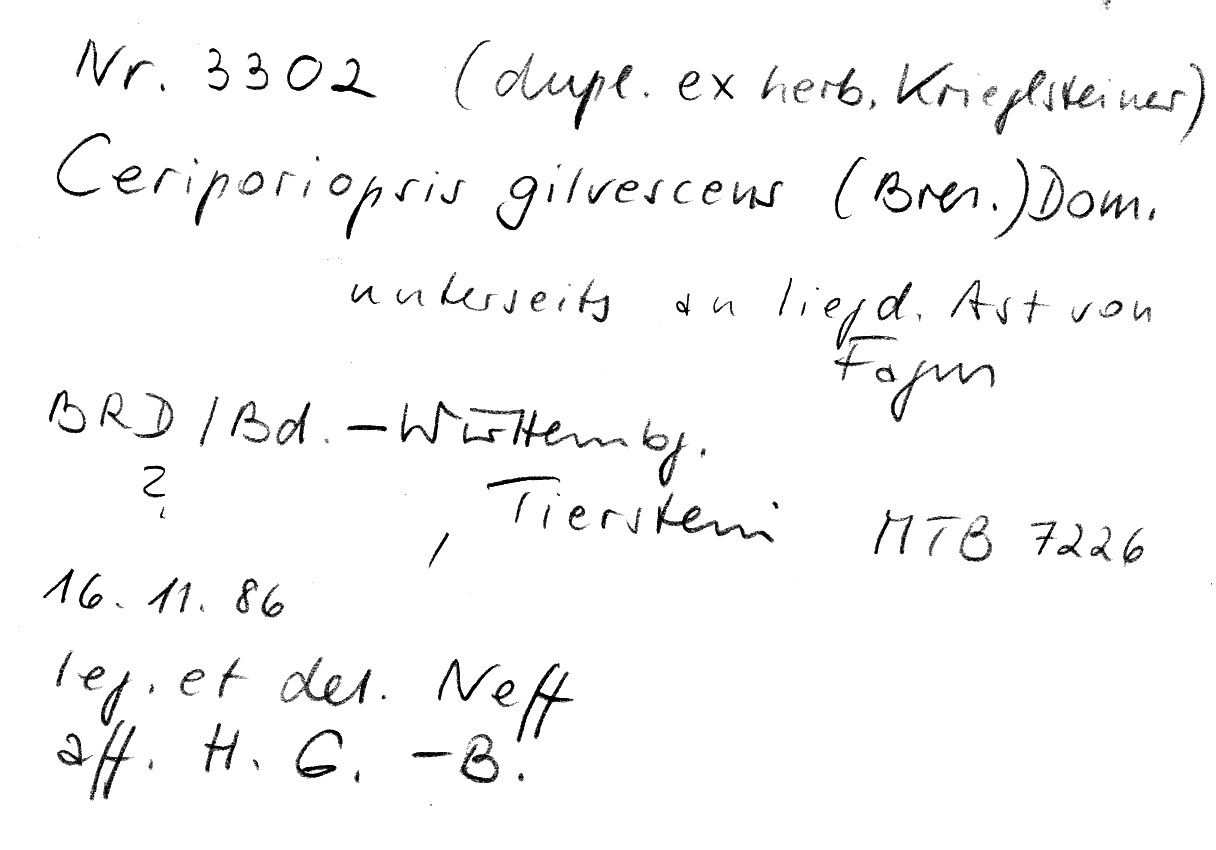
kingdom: Plantae
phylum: Tracheophyta
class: Magnoliopsida
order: Fagales
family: Fagaceae
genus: Fagus
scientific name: Fagus sylvatica
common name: Beech
